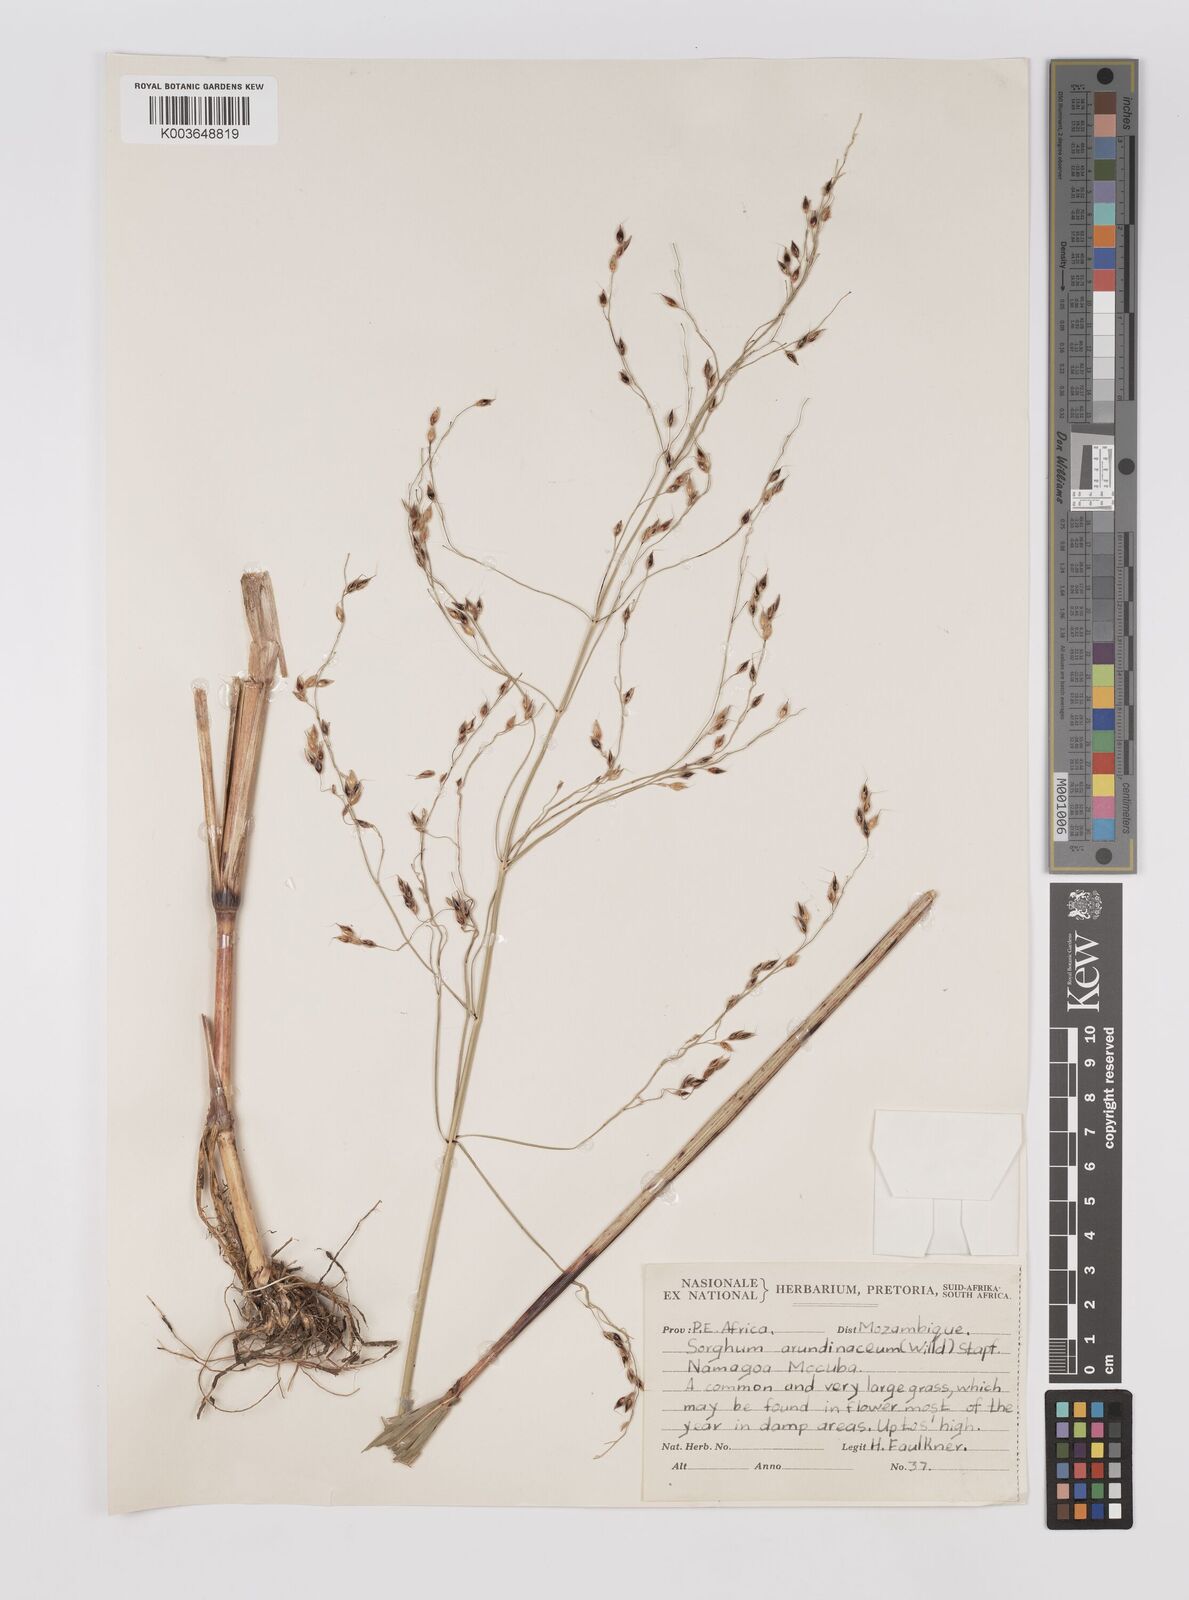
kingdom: Plantae
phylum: Tracheophyta
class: Liliopsida
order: Poales
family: Poaceae
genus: Sorghum
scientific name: Sorghum arundinaceum
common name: Sorghum
